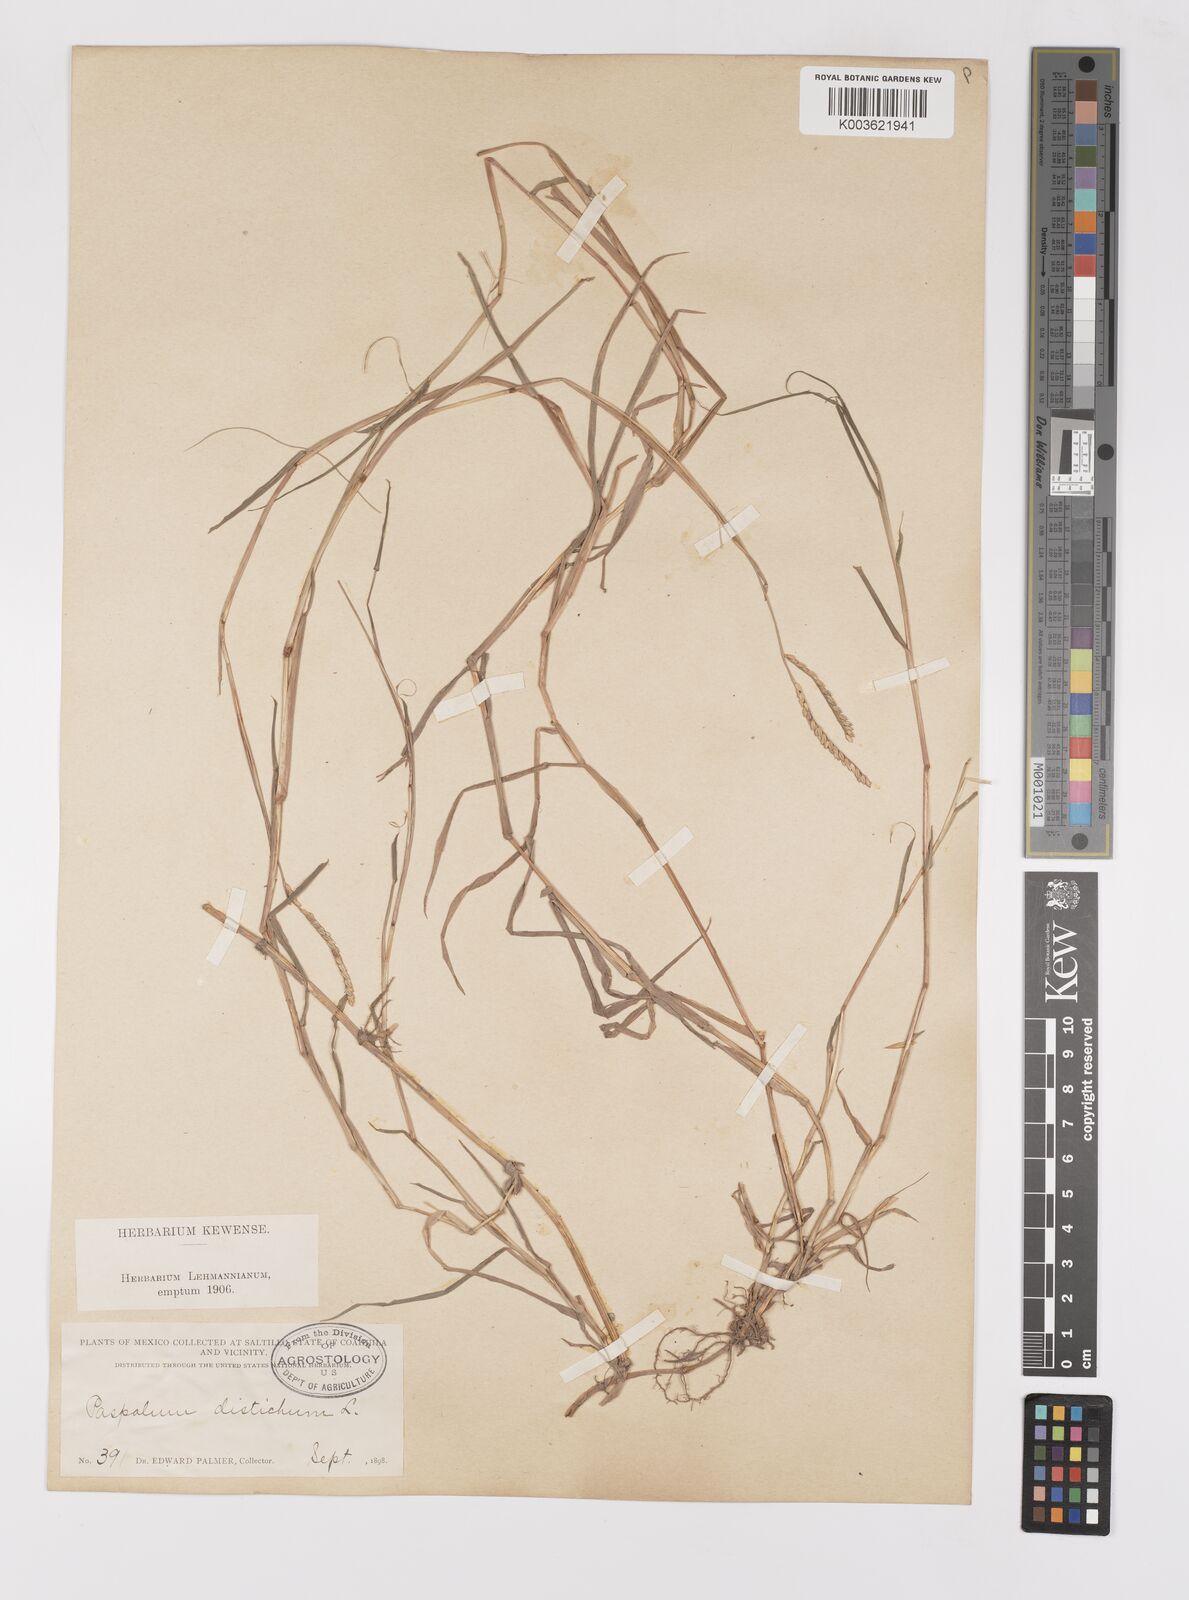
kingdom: Plantae
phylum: Tracheophyta
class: Liliopsida
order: Poales
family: Poaceae
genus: Paspalum
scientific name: Paspalum distichum
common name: Knotgrass
